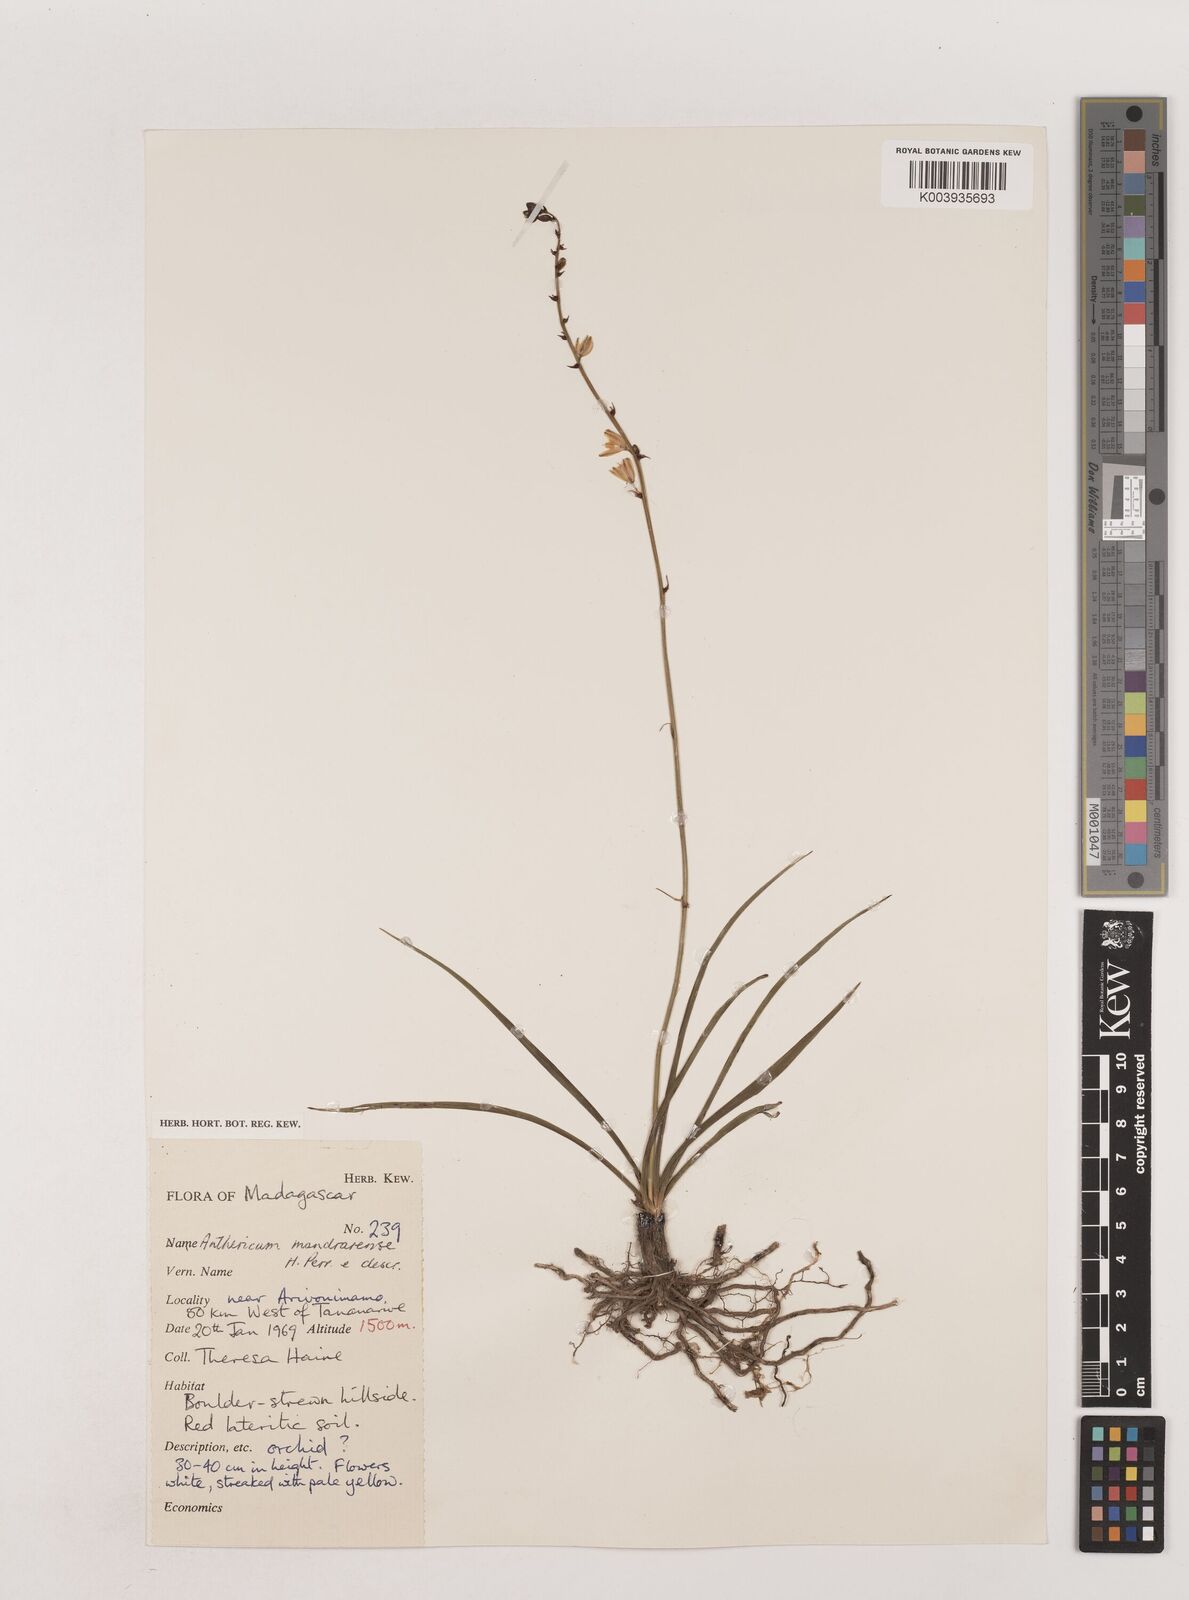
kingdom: Plantae
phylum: Tracheophyta
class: Liliopsida
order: Asparagales
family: Asparagaceae
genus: Chlorophytum
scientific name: Chlorophytum
